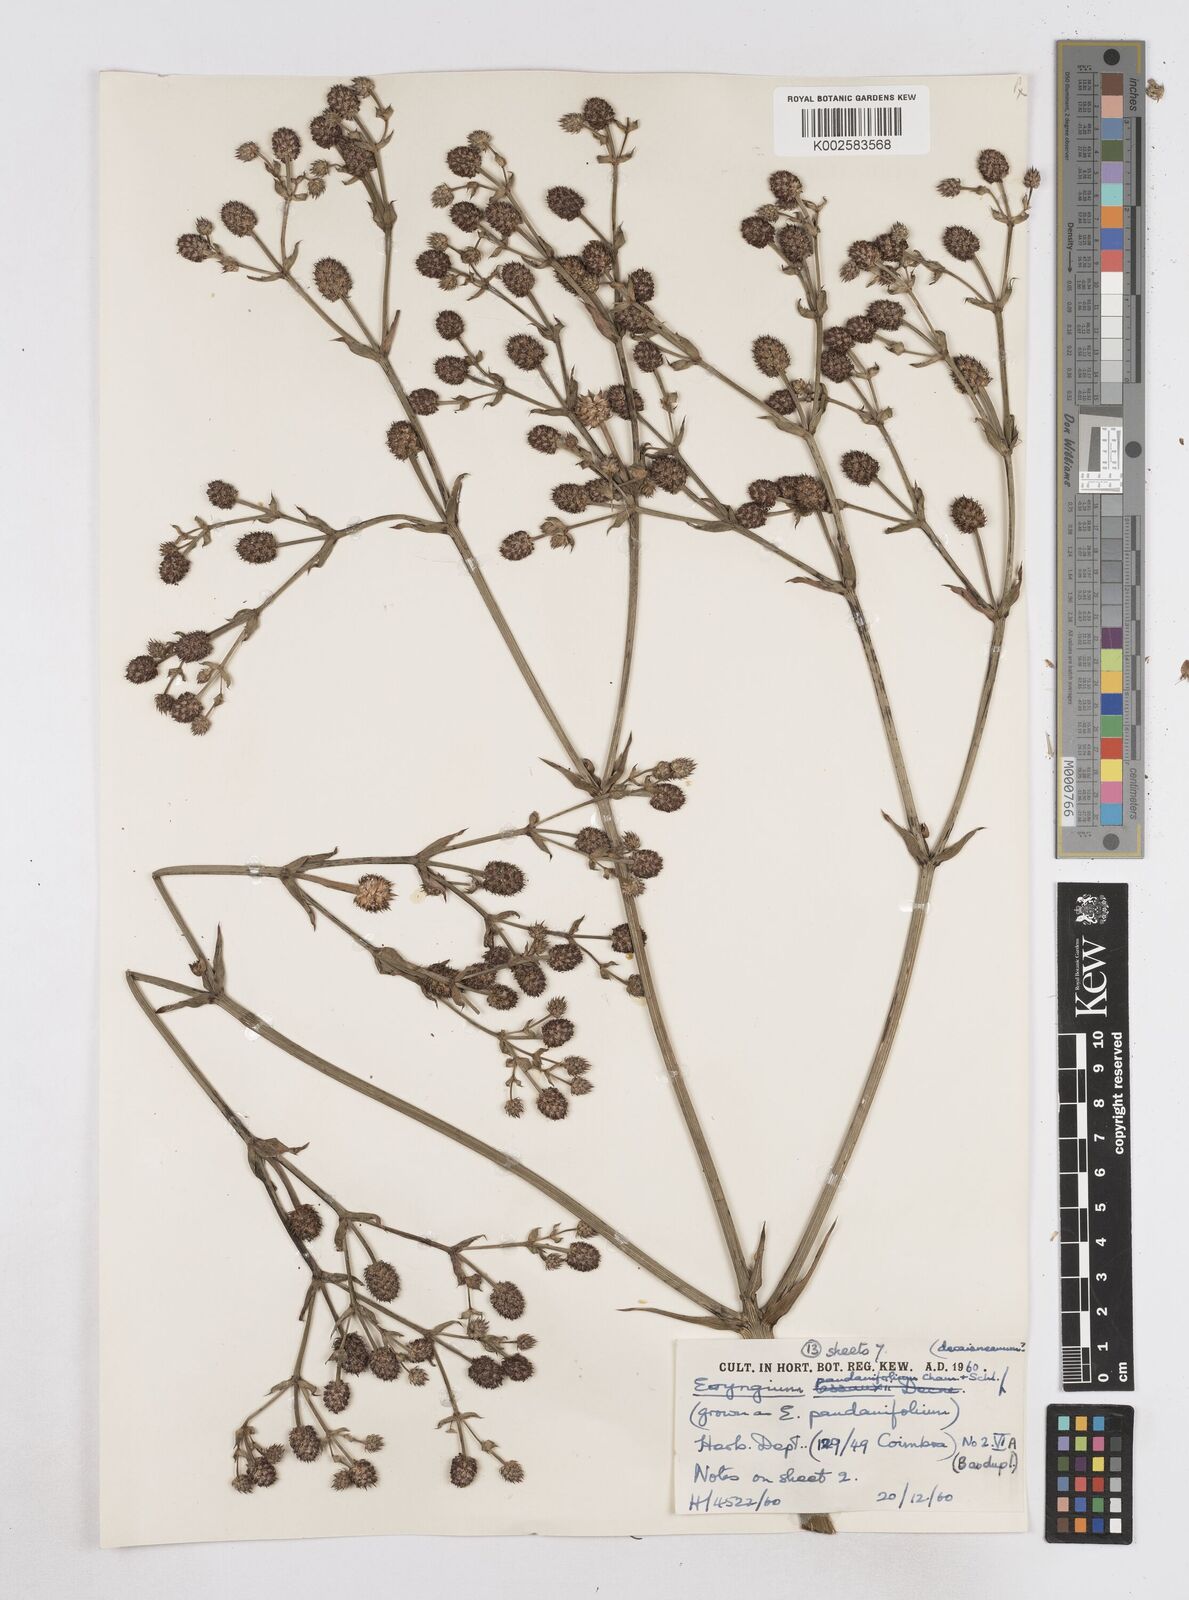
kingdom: Plantae
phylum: Tracheophyta
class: Magnoliopsida
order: Apiales
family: Apiaceae
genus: Eryngium
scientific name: Eryngium pandanifolium
